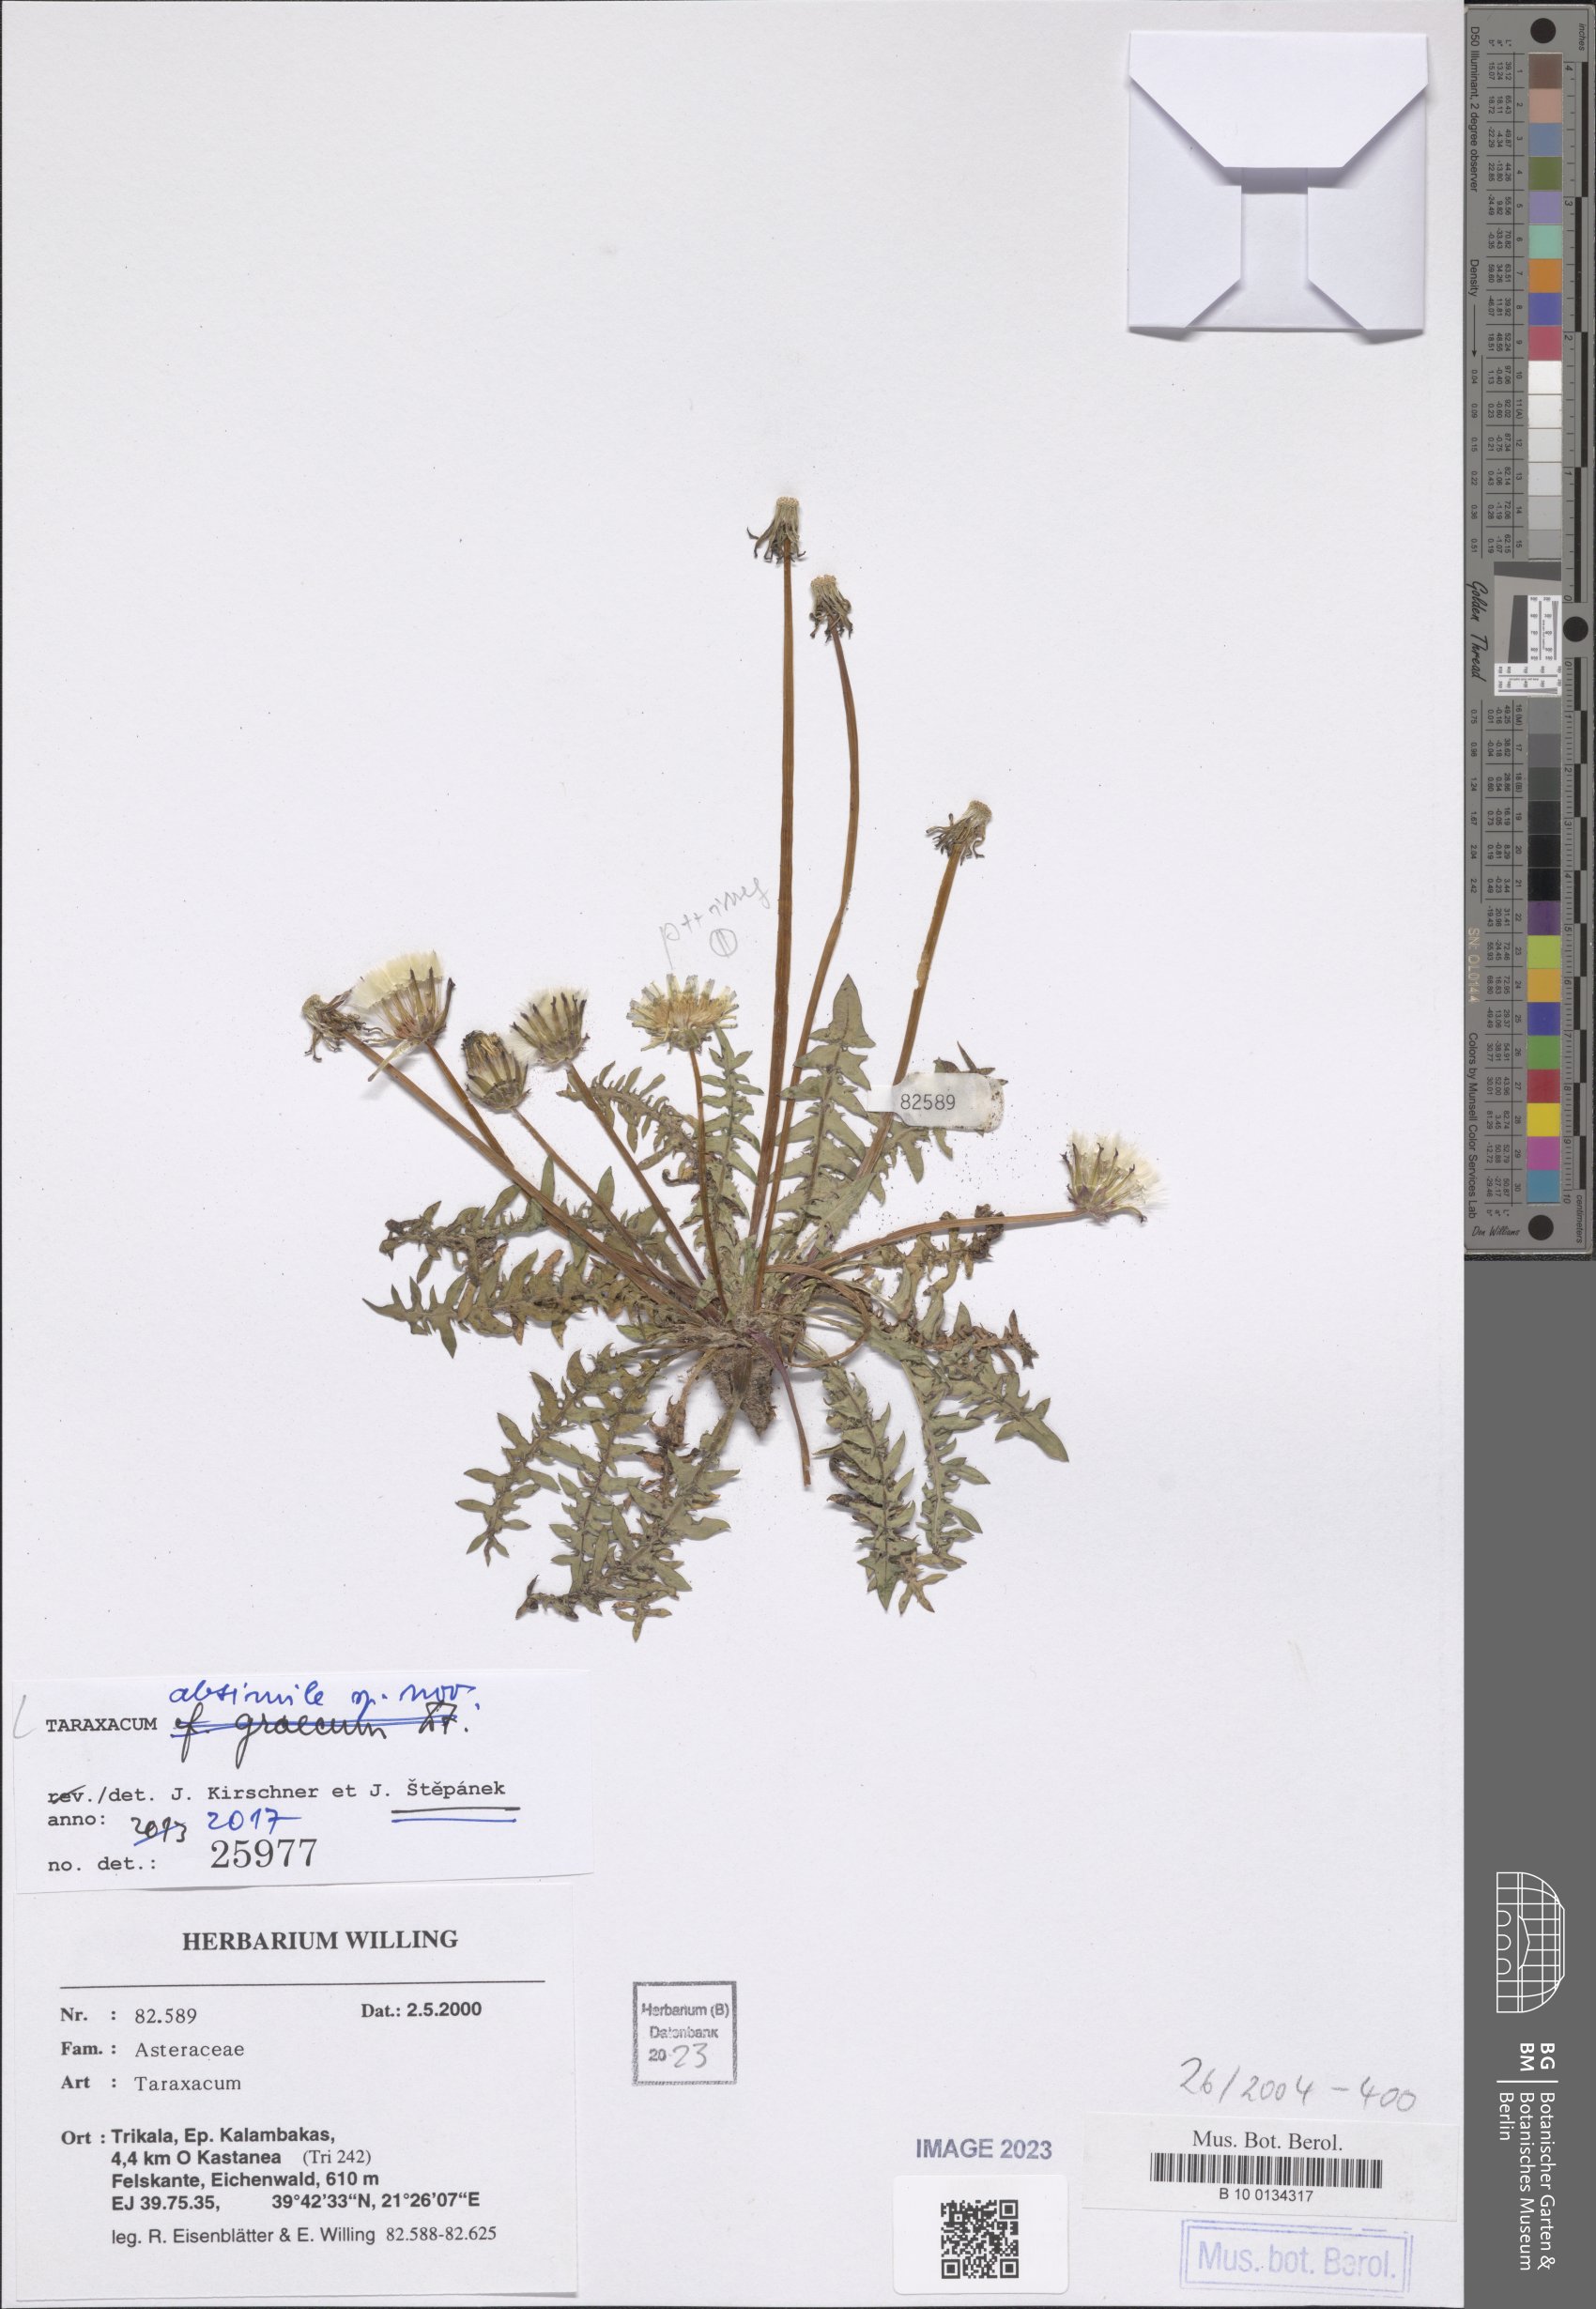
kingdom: Plantae
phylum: Tracheophyta
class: Magnoliopsida
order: Asterales
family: Asteraceae
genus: Taraxacum
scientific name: Taraxacum longisquameum
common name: Elongate-bracted dandelion
